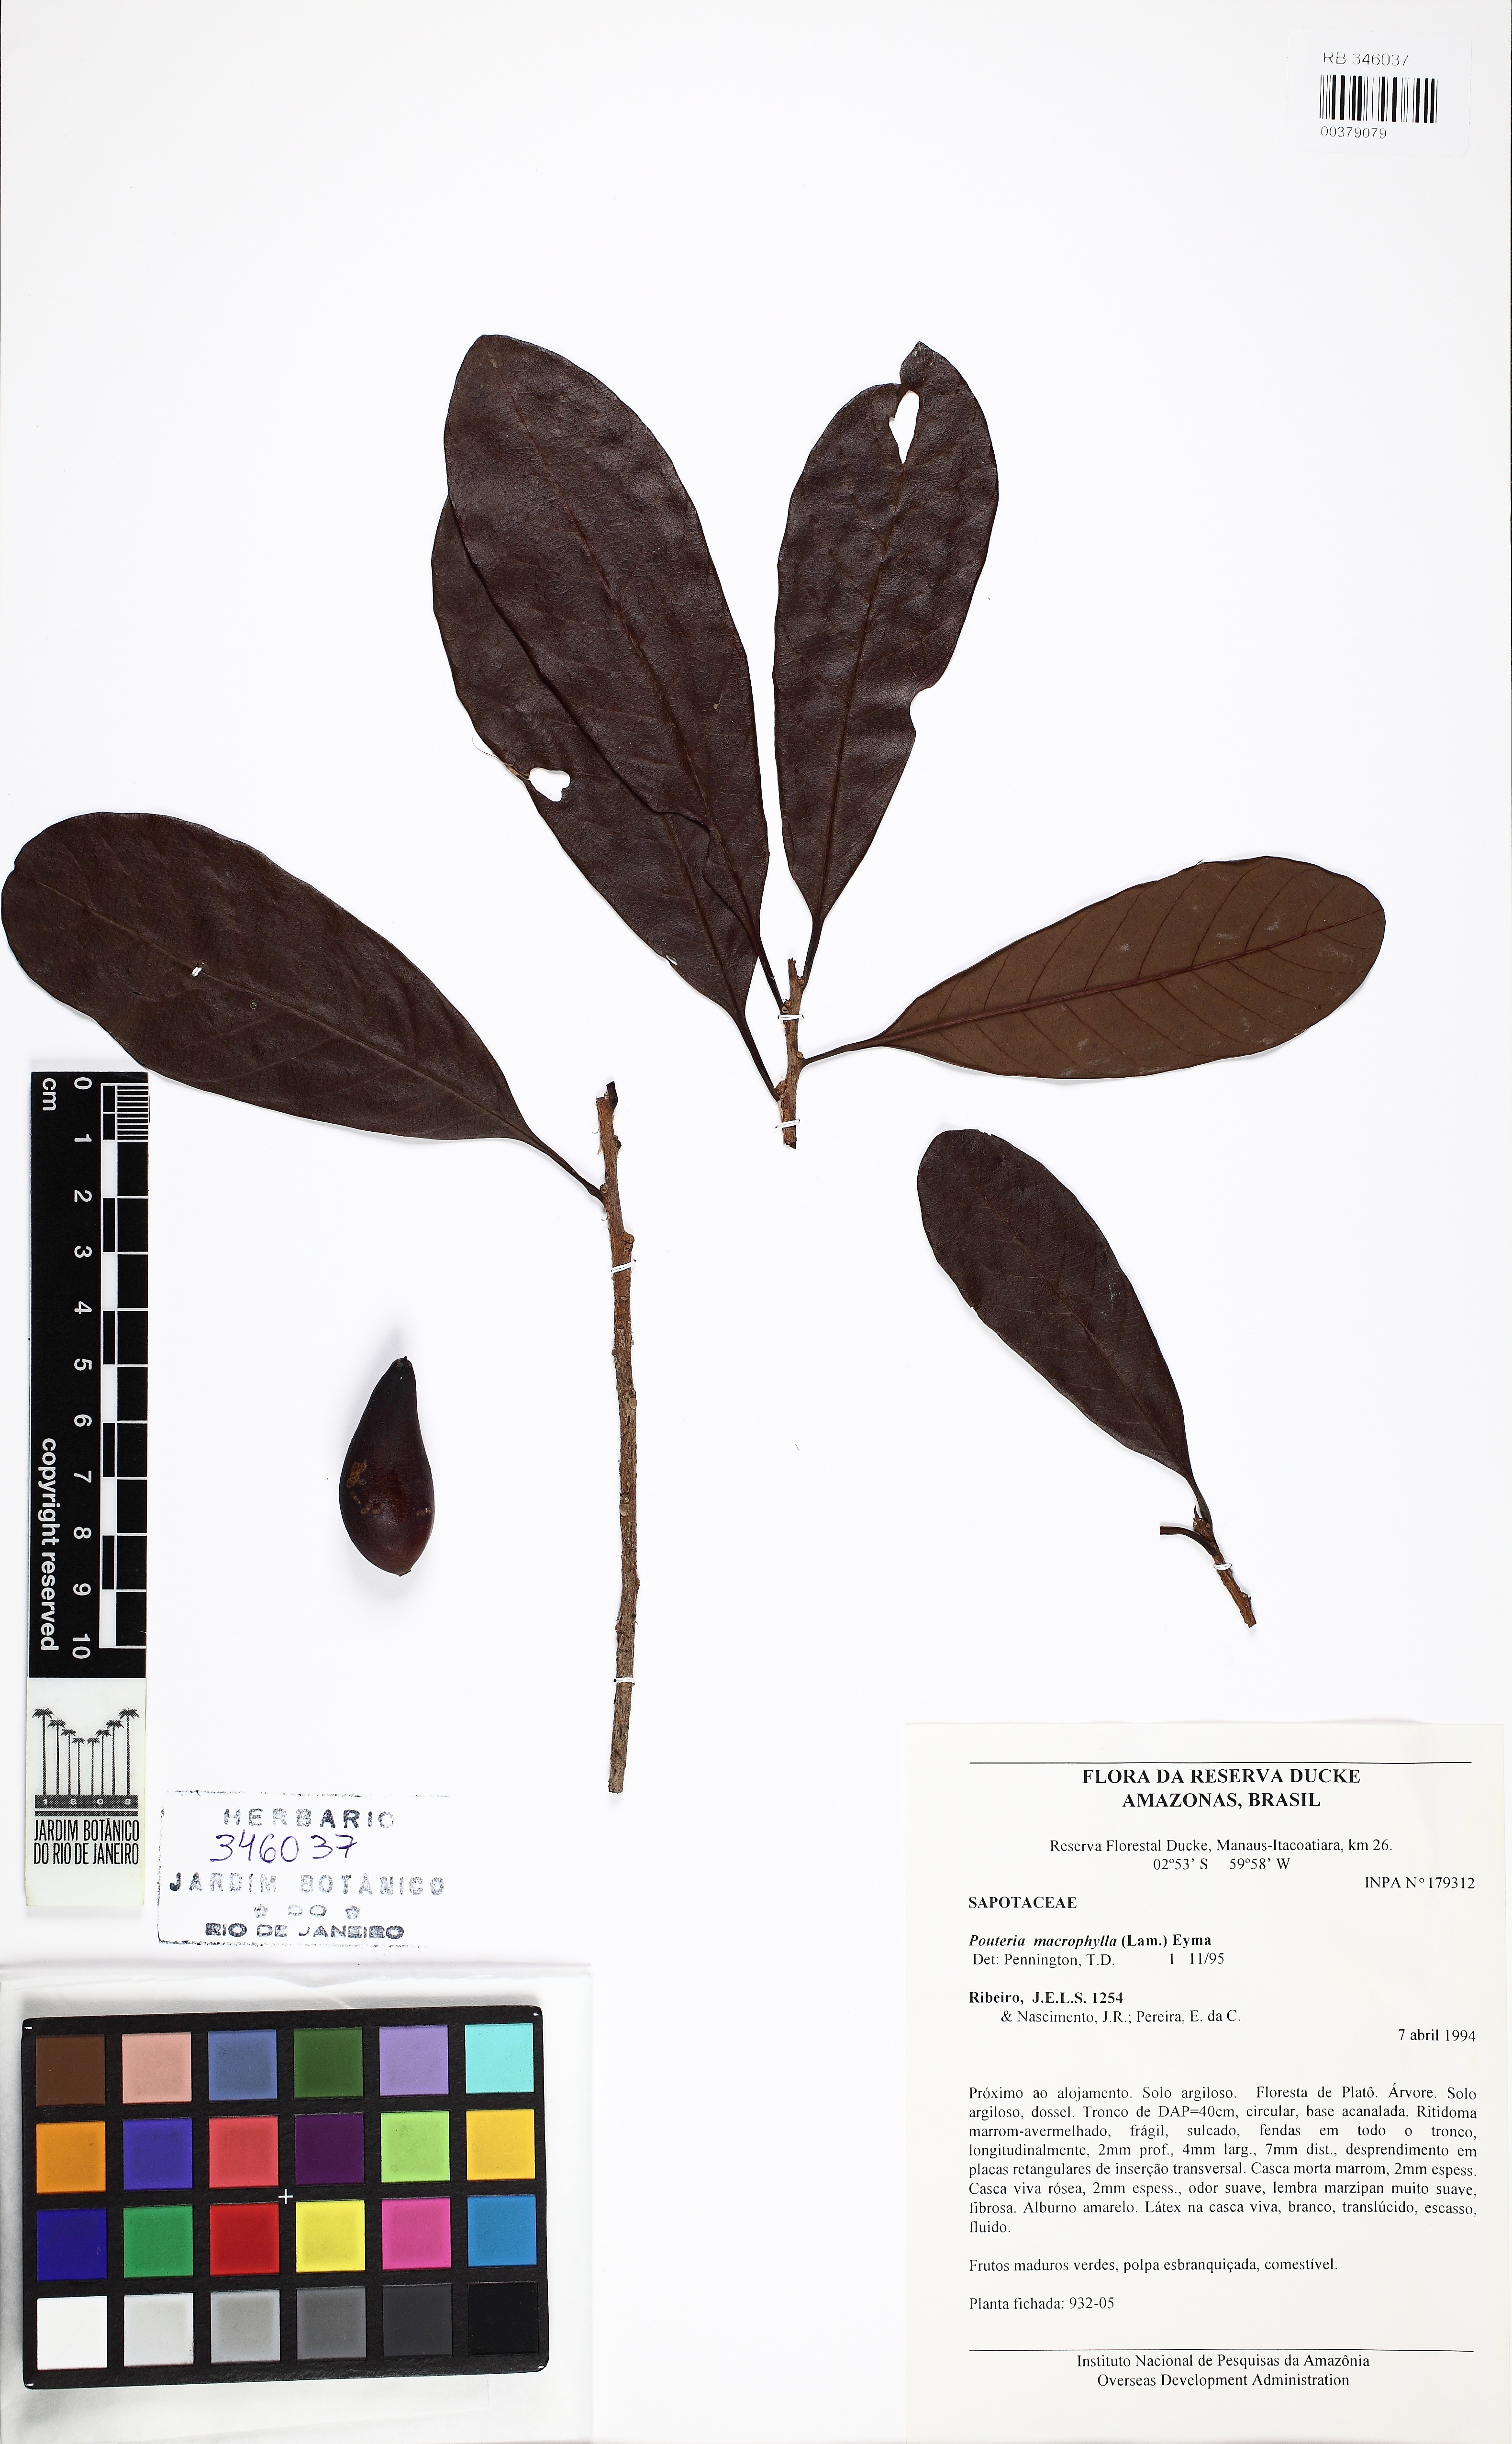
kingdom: Plantae
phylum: Tracheophyta
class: Magnoliopsida
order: Ericales
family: Sapotaceae
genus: Pouteria
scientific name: Pouteria macrophylla
